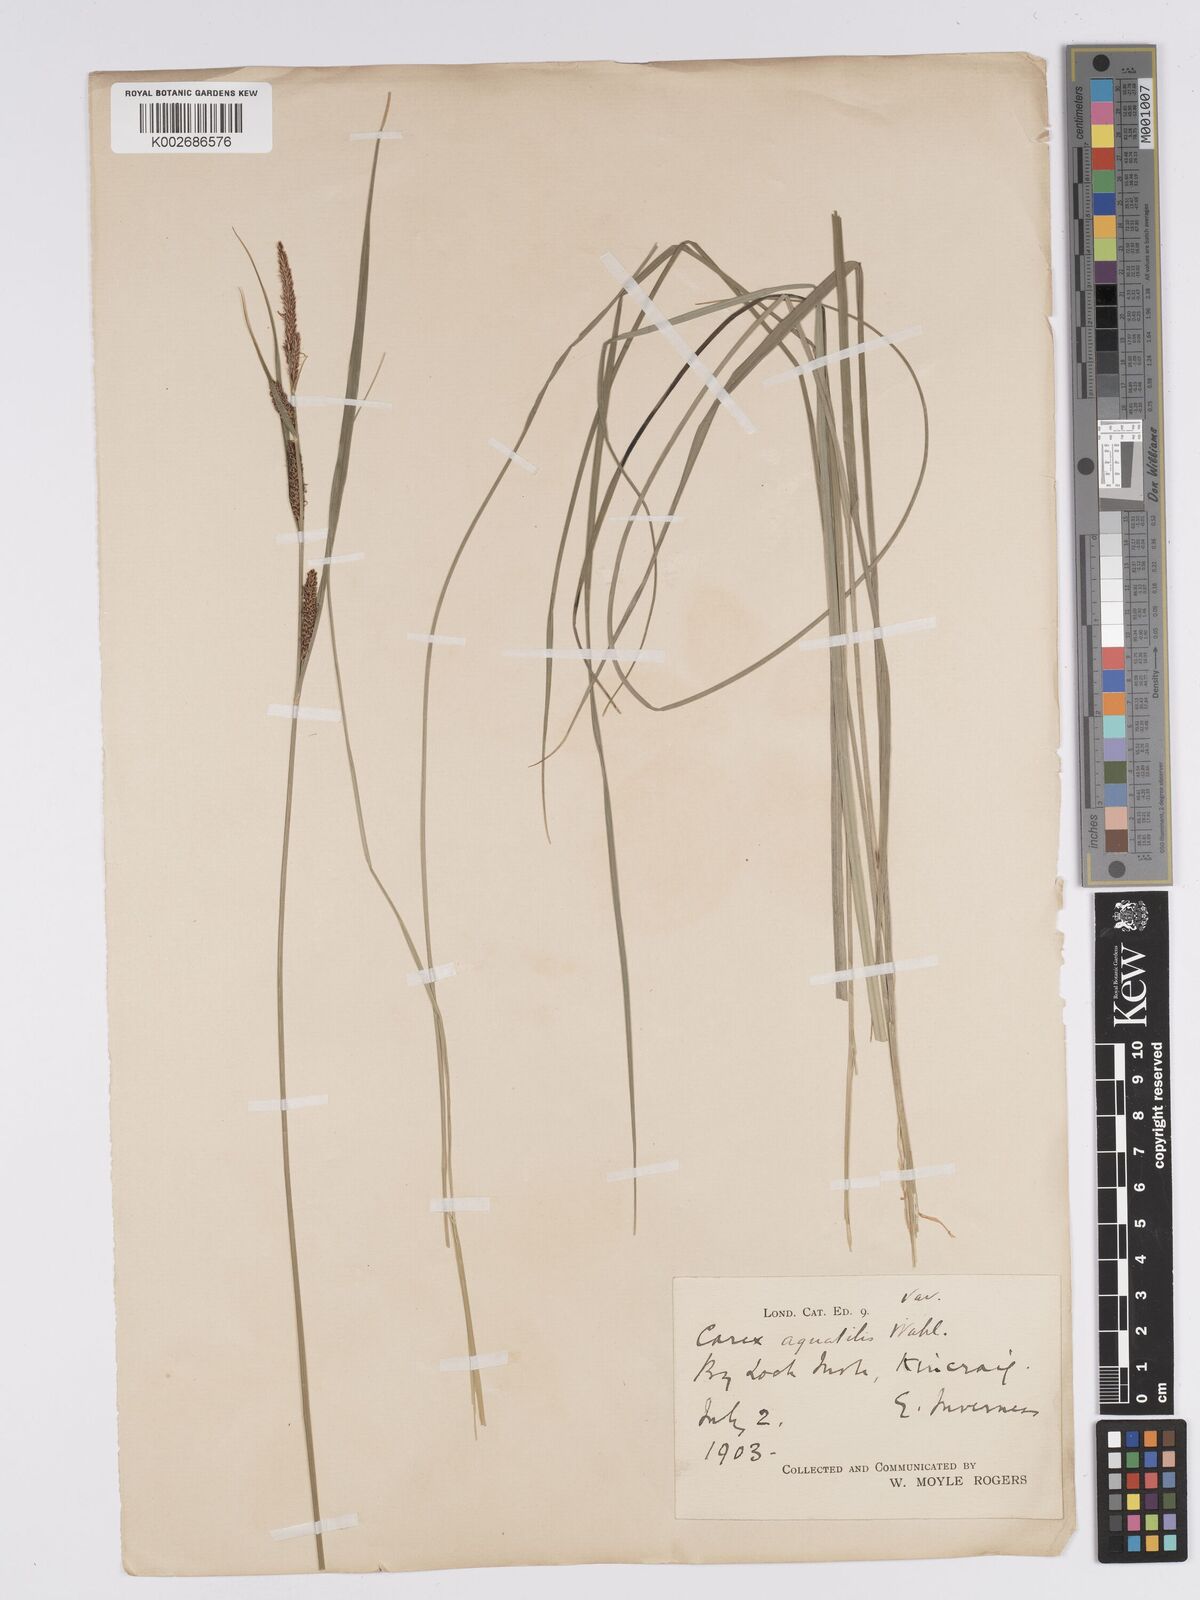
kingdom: Plantae
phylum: Tracheophyta
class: Liliopsida
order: Poales
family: Cyperaceae
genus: Carex
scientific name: Carex aquatilis
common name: Water sedge
